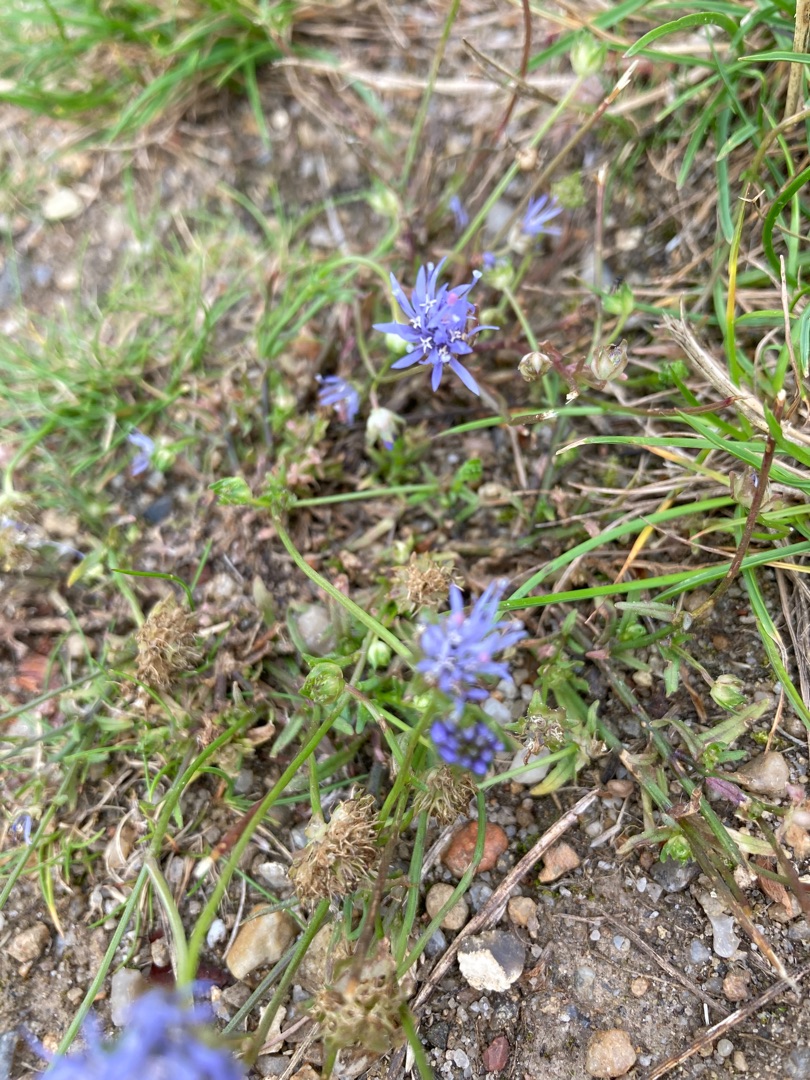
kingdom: Plantae
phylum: Tracheophyta
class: Magnoliopsida
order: Asterales
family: Campanulaceae
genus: Jasione
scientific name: Jasione montana
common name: Blåmunke
